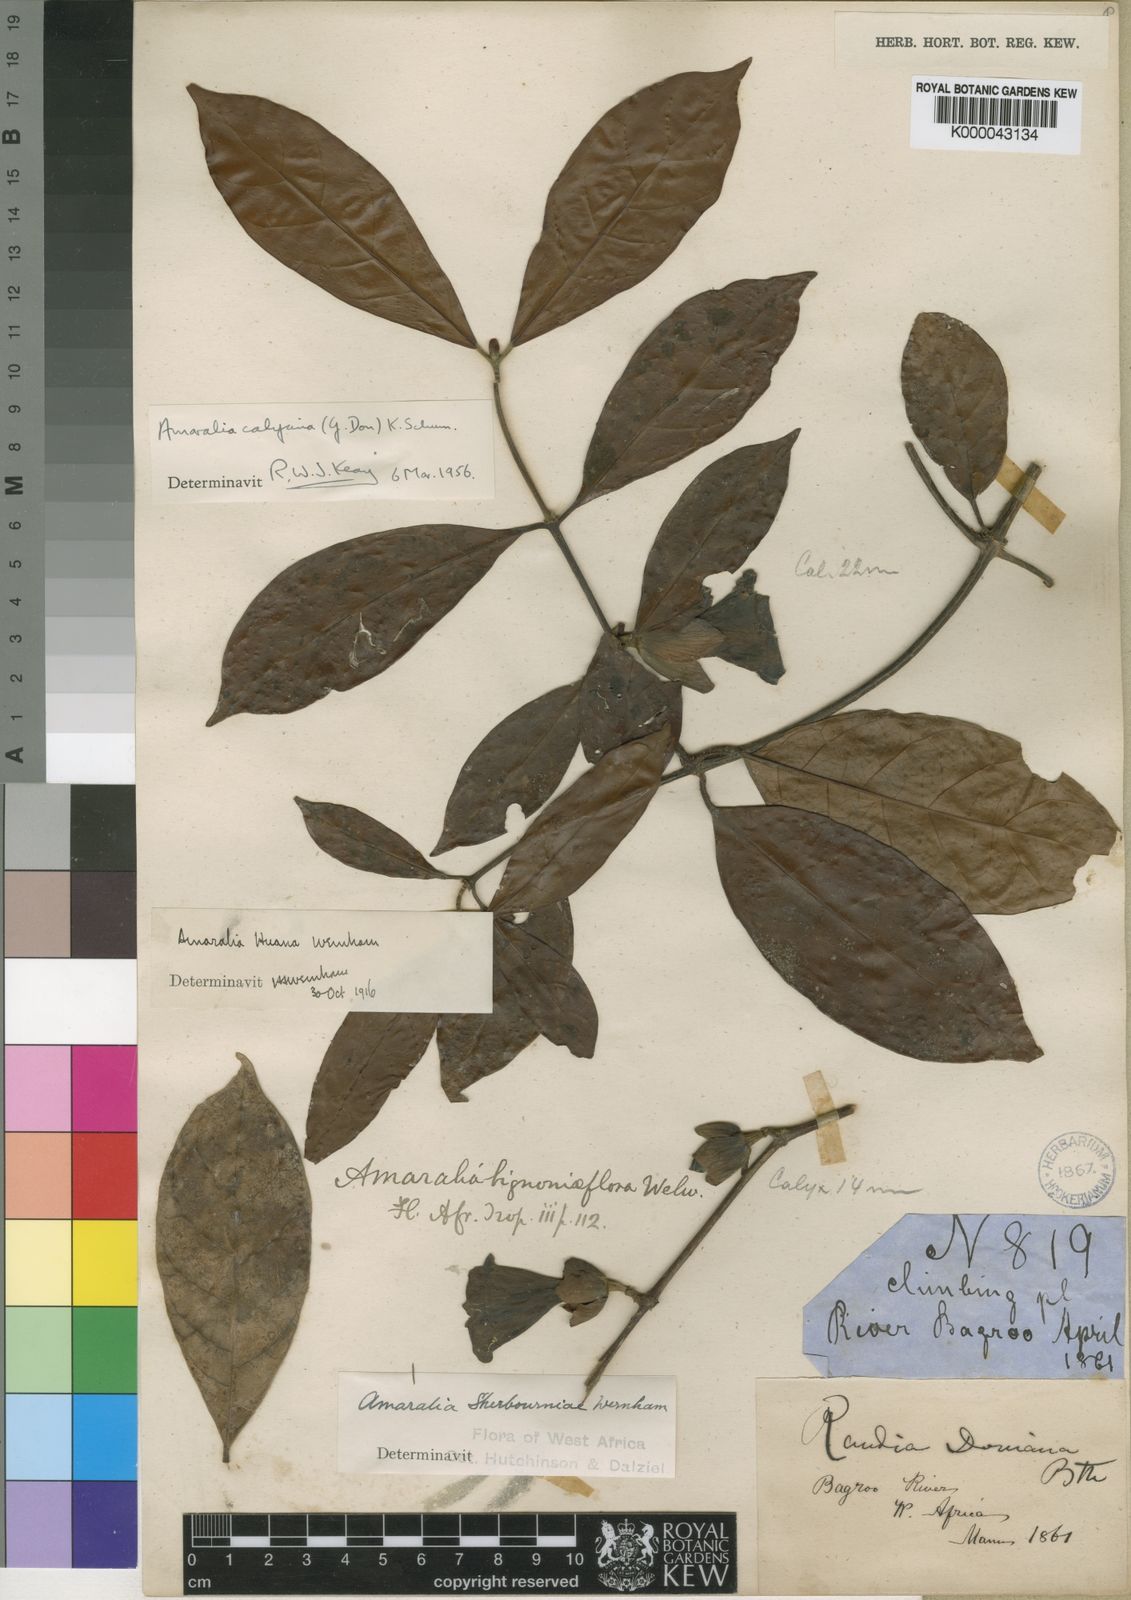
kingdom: Plantae
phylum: Tracheophyta
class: Magnoliopsida
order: Gentianales
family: Rubiaceae
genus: Sherbournia
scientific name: Sherbournia
